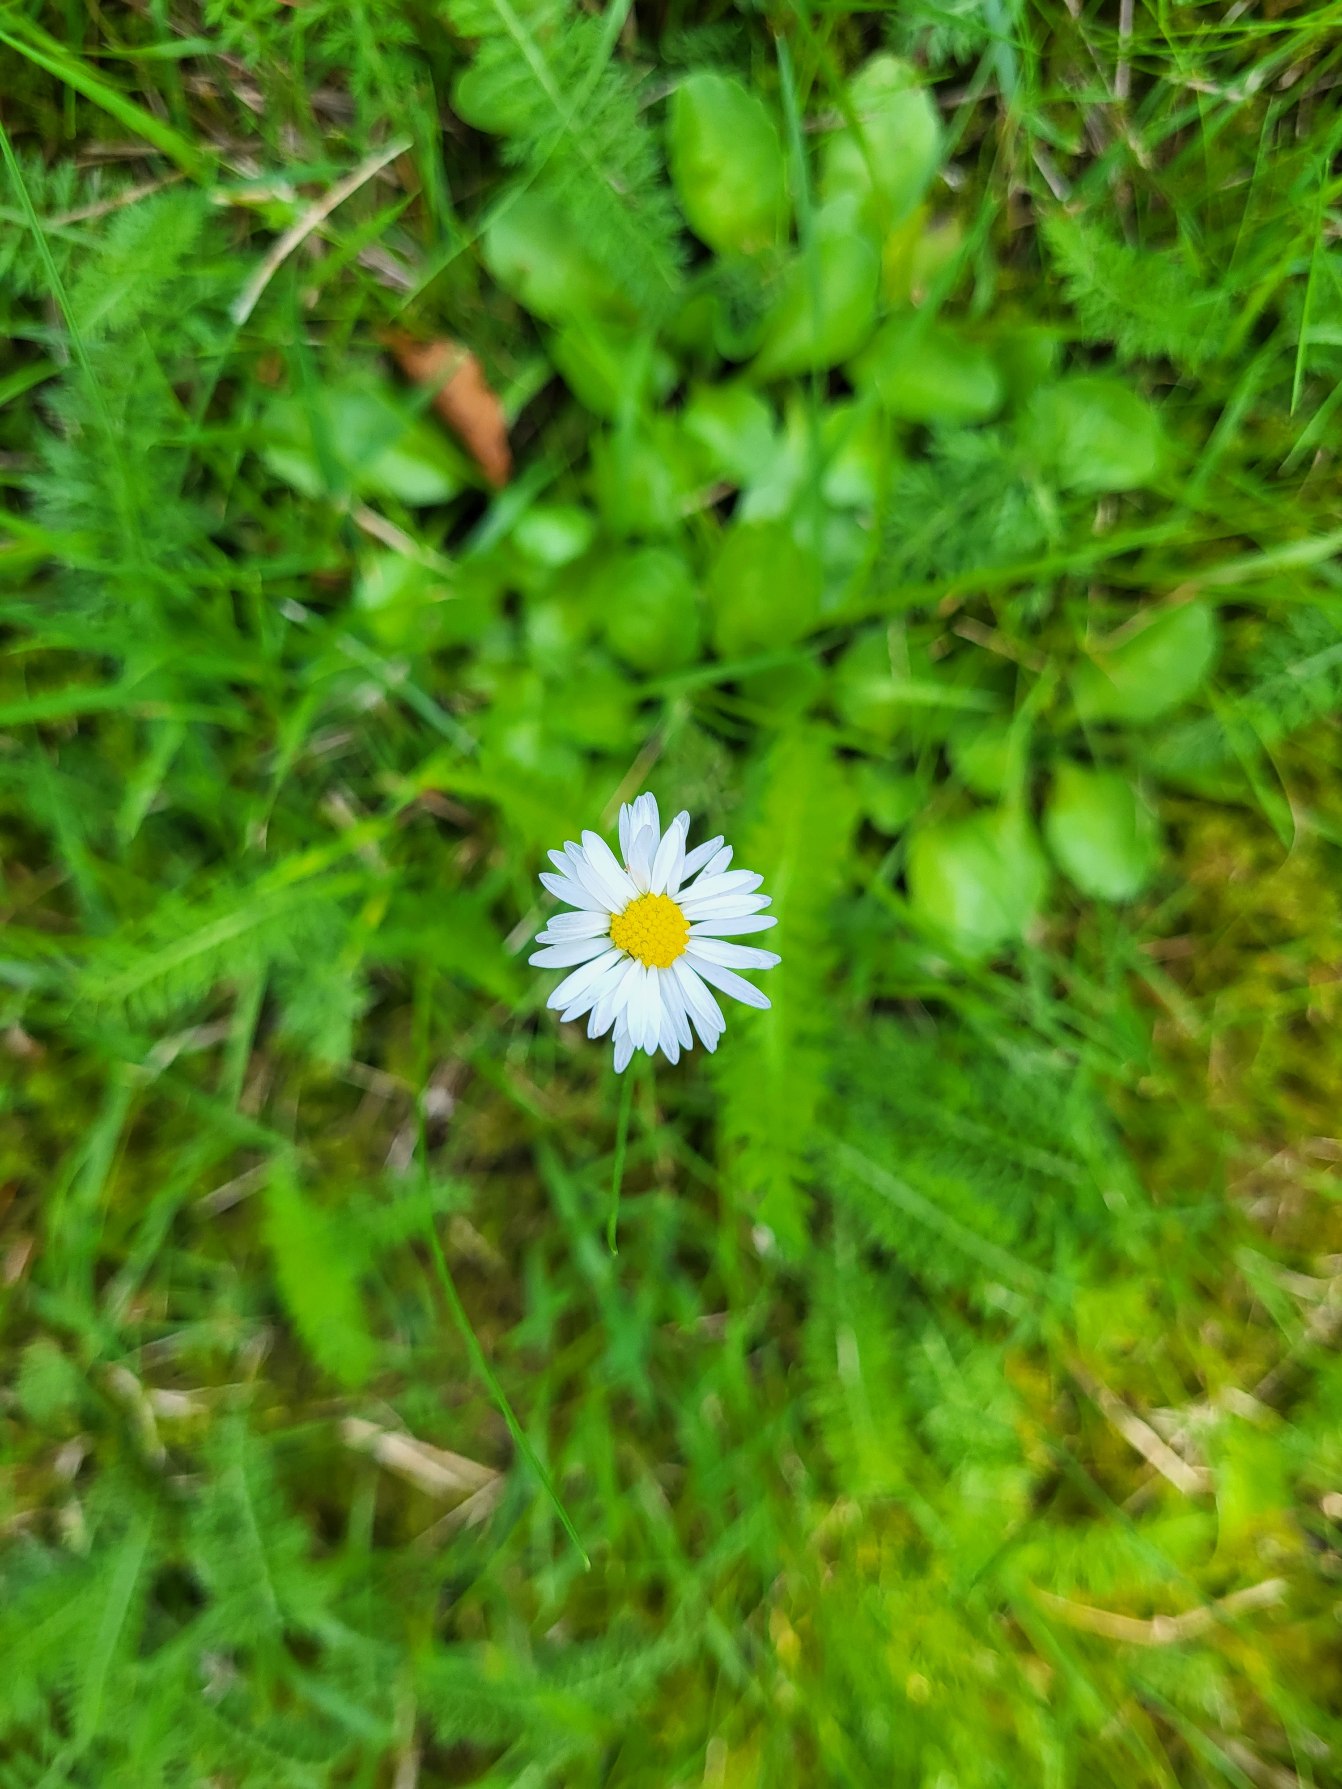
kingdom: Plantae
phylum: Tracheophyta
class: Magnoliopsida
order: Asterales
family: Asteraceae
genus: Bellis
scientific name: Bellis perennis
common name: Tusindfryd
